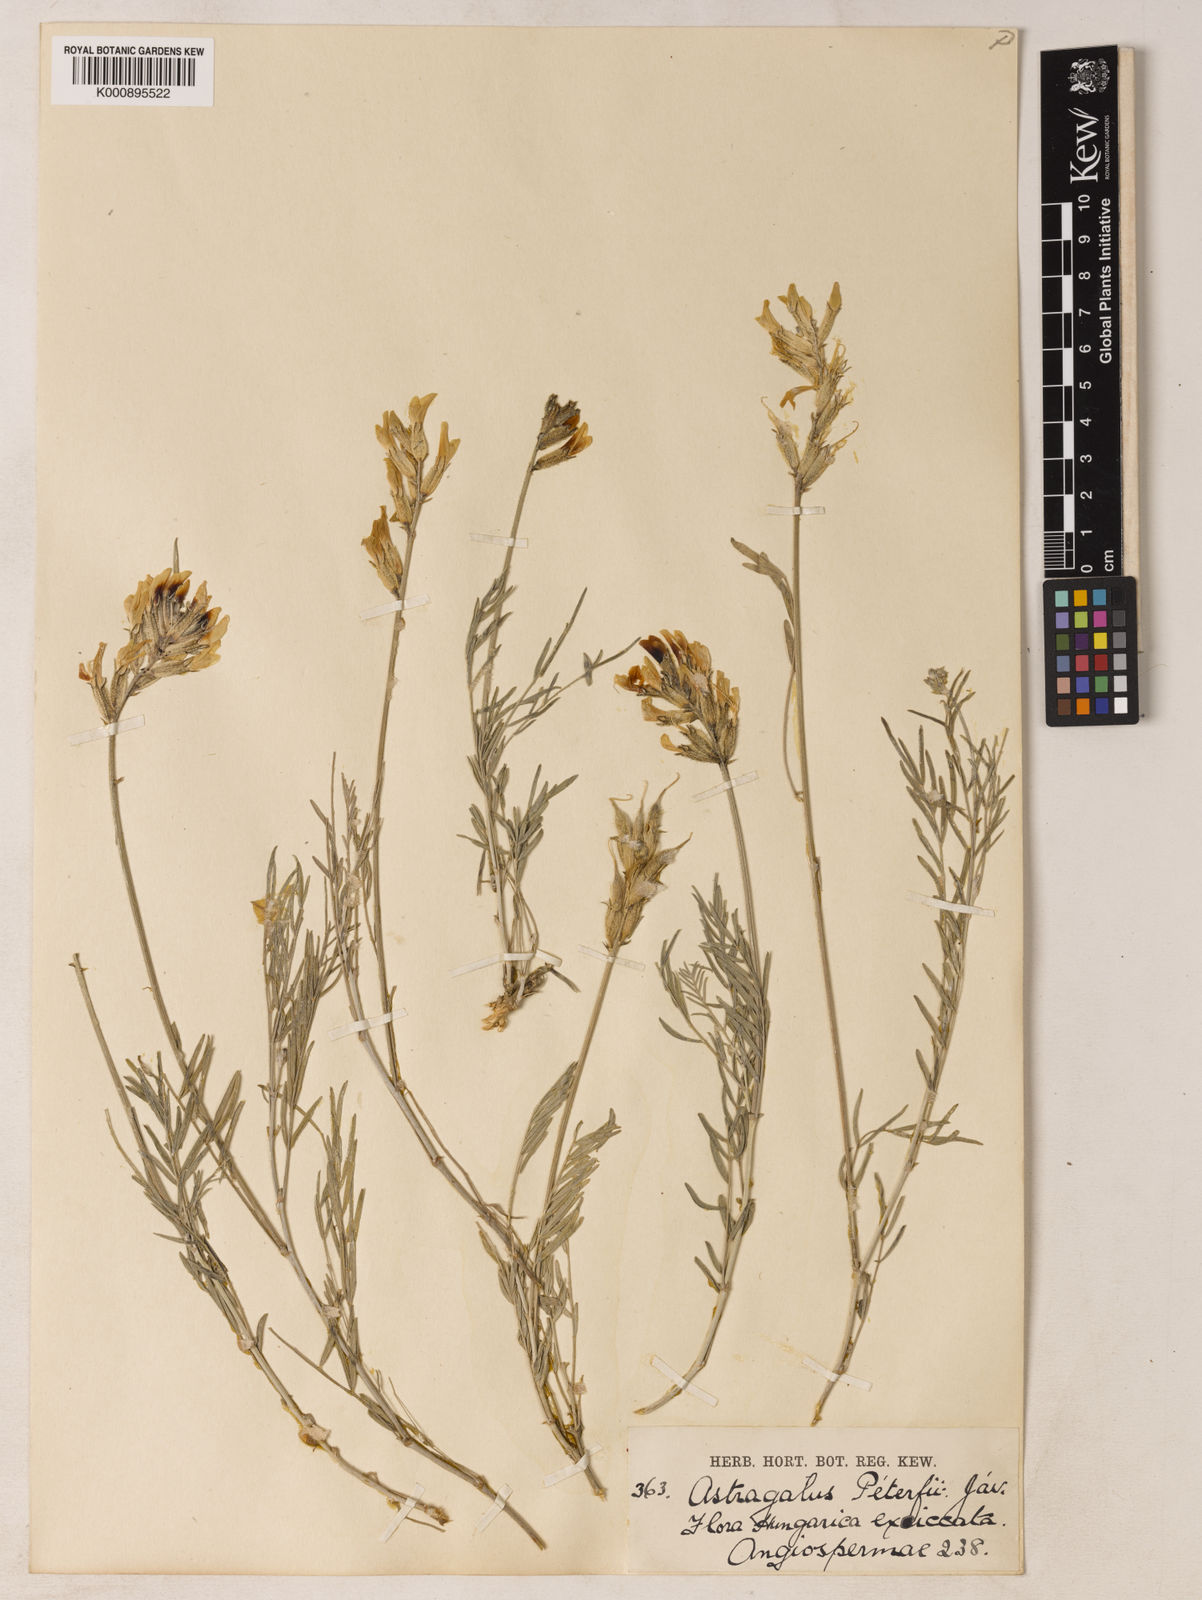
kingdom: Plantae
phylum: Tracheophyta
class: Magnoliopsida
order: Fabales
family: Fabaceae
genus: Astragalus
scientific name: Astragalus
